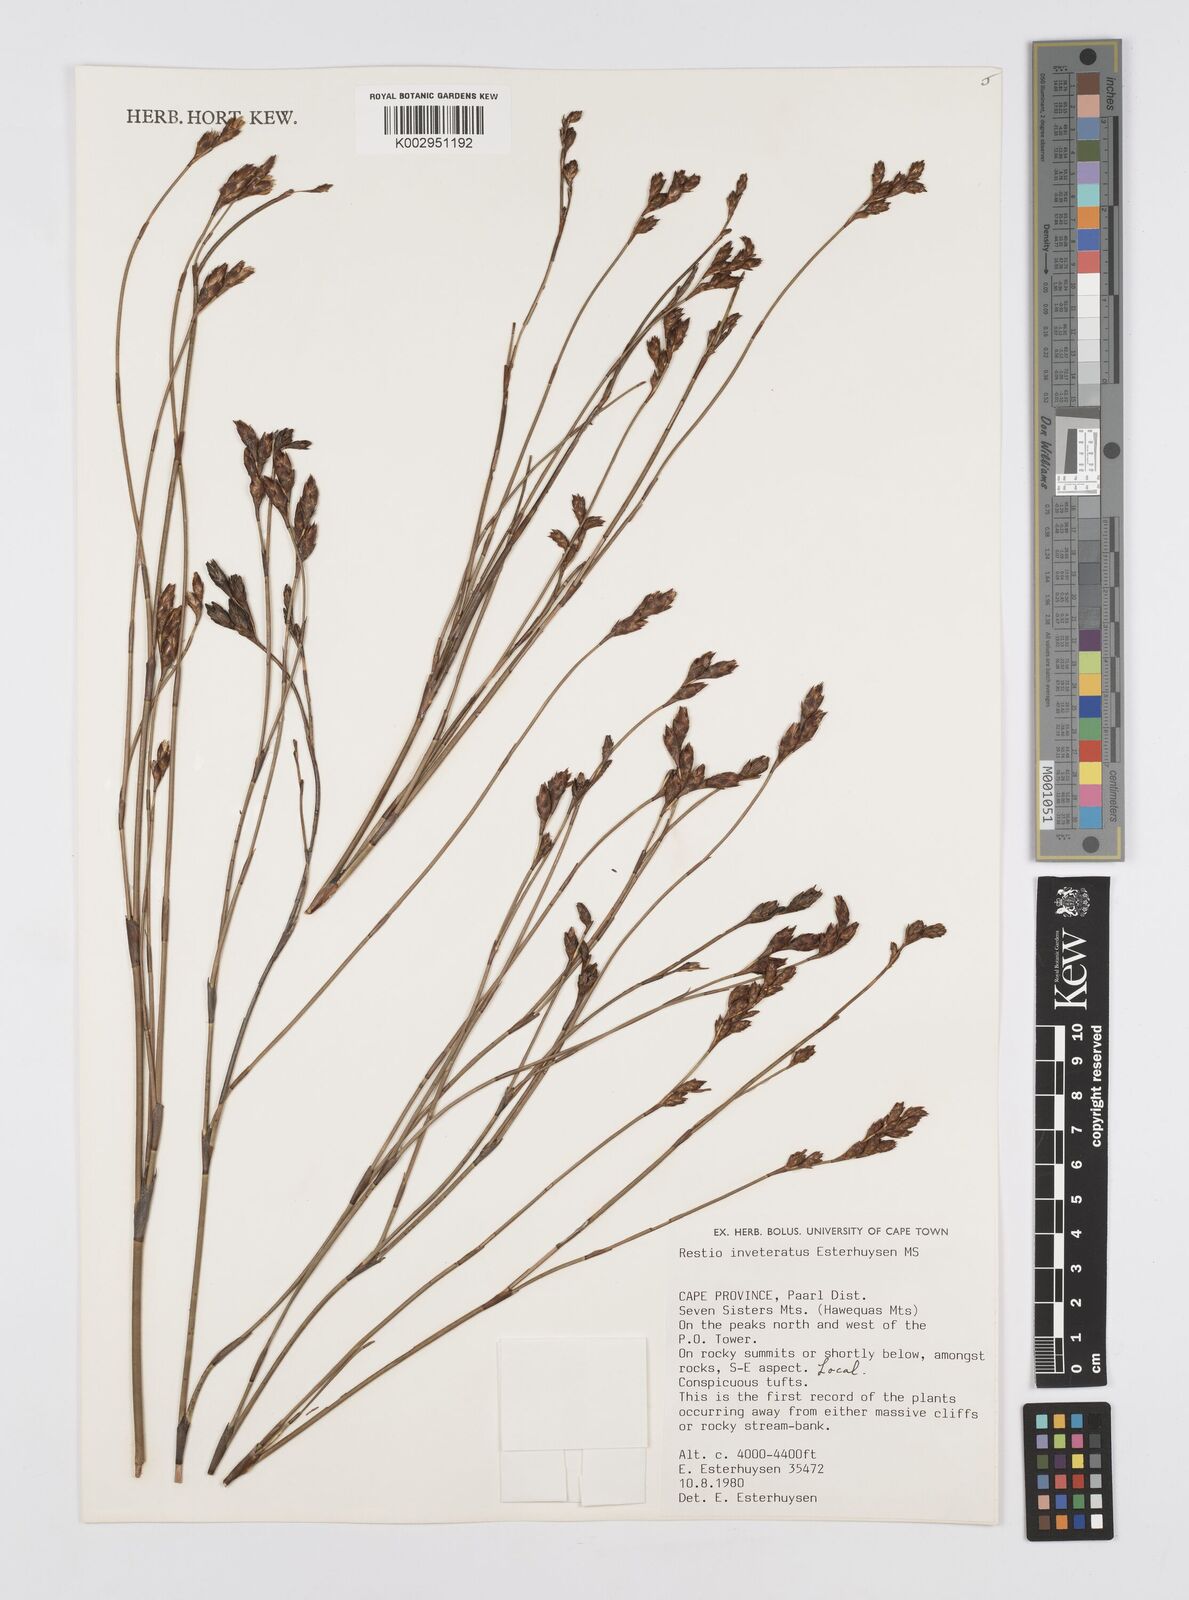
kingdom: Plantae
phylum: Tracheophyta
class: Liliopsida
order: Poales
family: Restionaceae
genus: Restio
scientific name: Restio inveteratus
